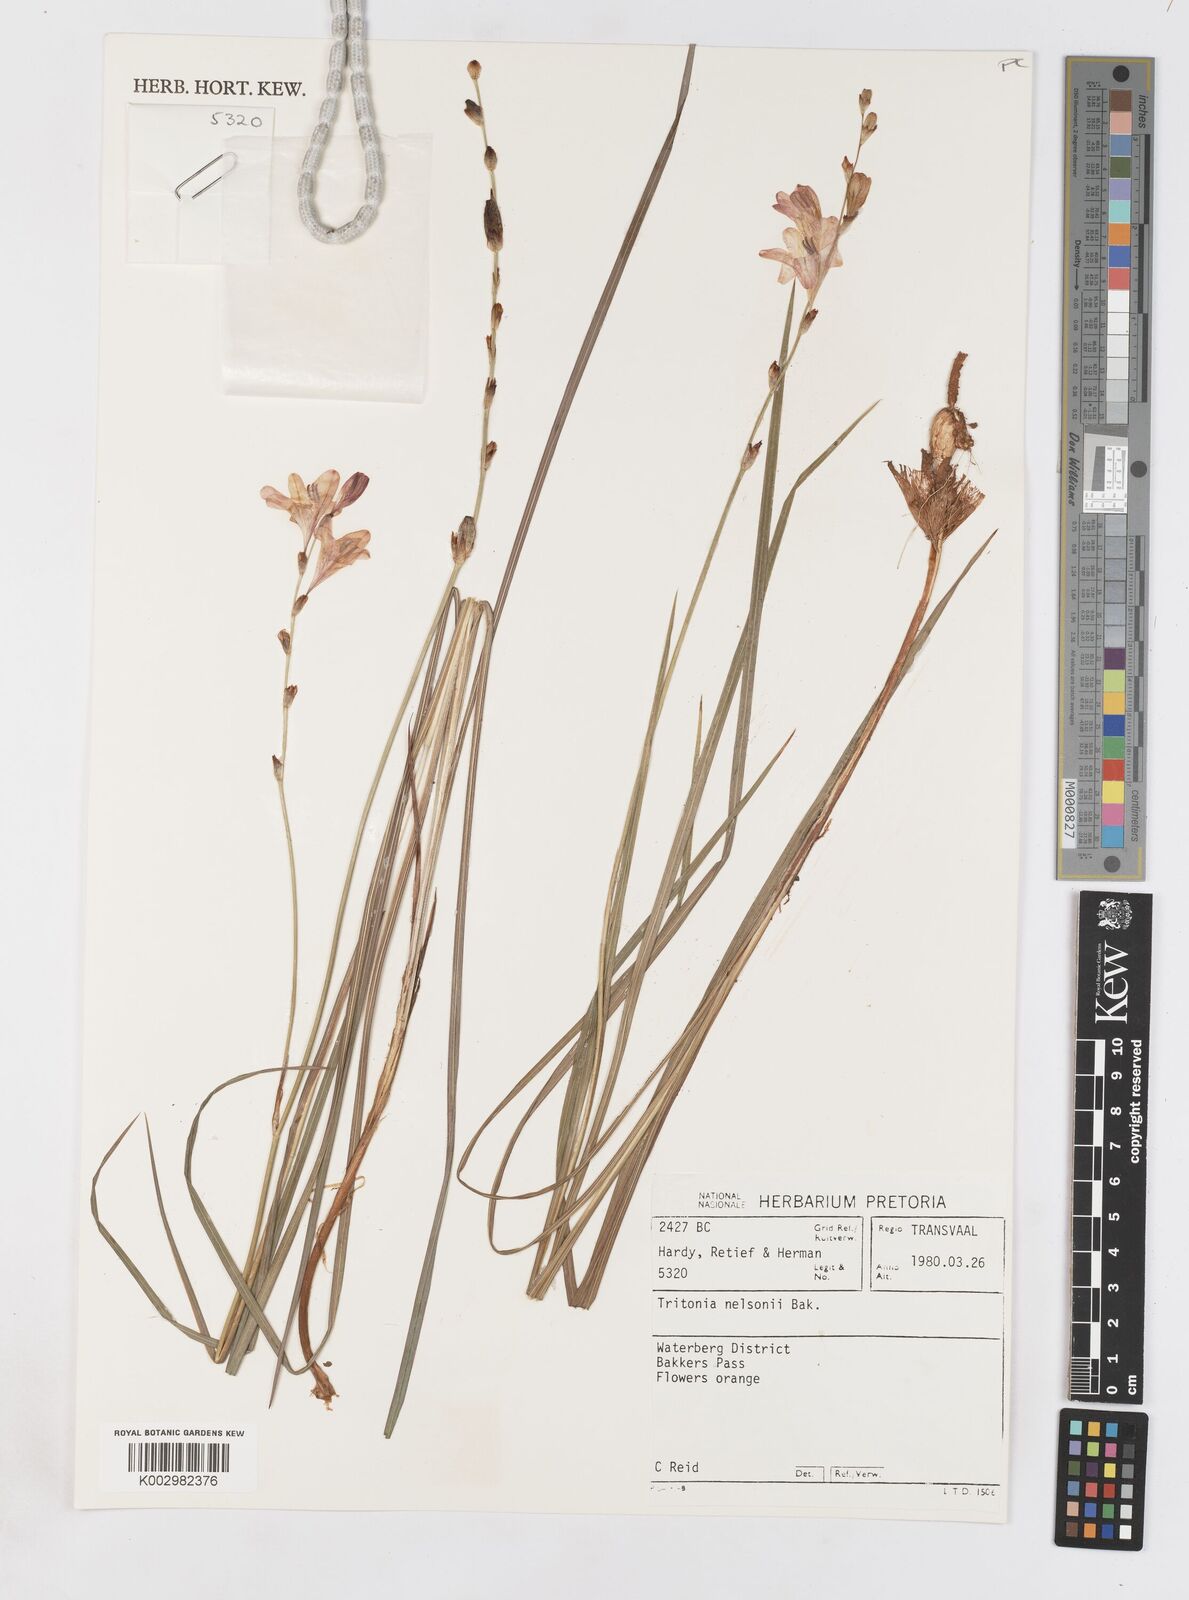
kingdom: Plantae
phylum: Tracheophyta
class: Liliopsida
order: Asparagales
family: Iridaceae
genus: Tritonia
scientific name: Tritonia nelsonii
